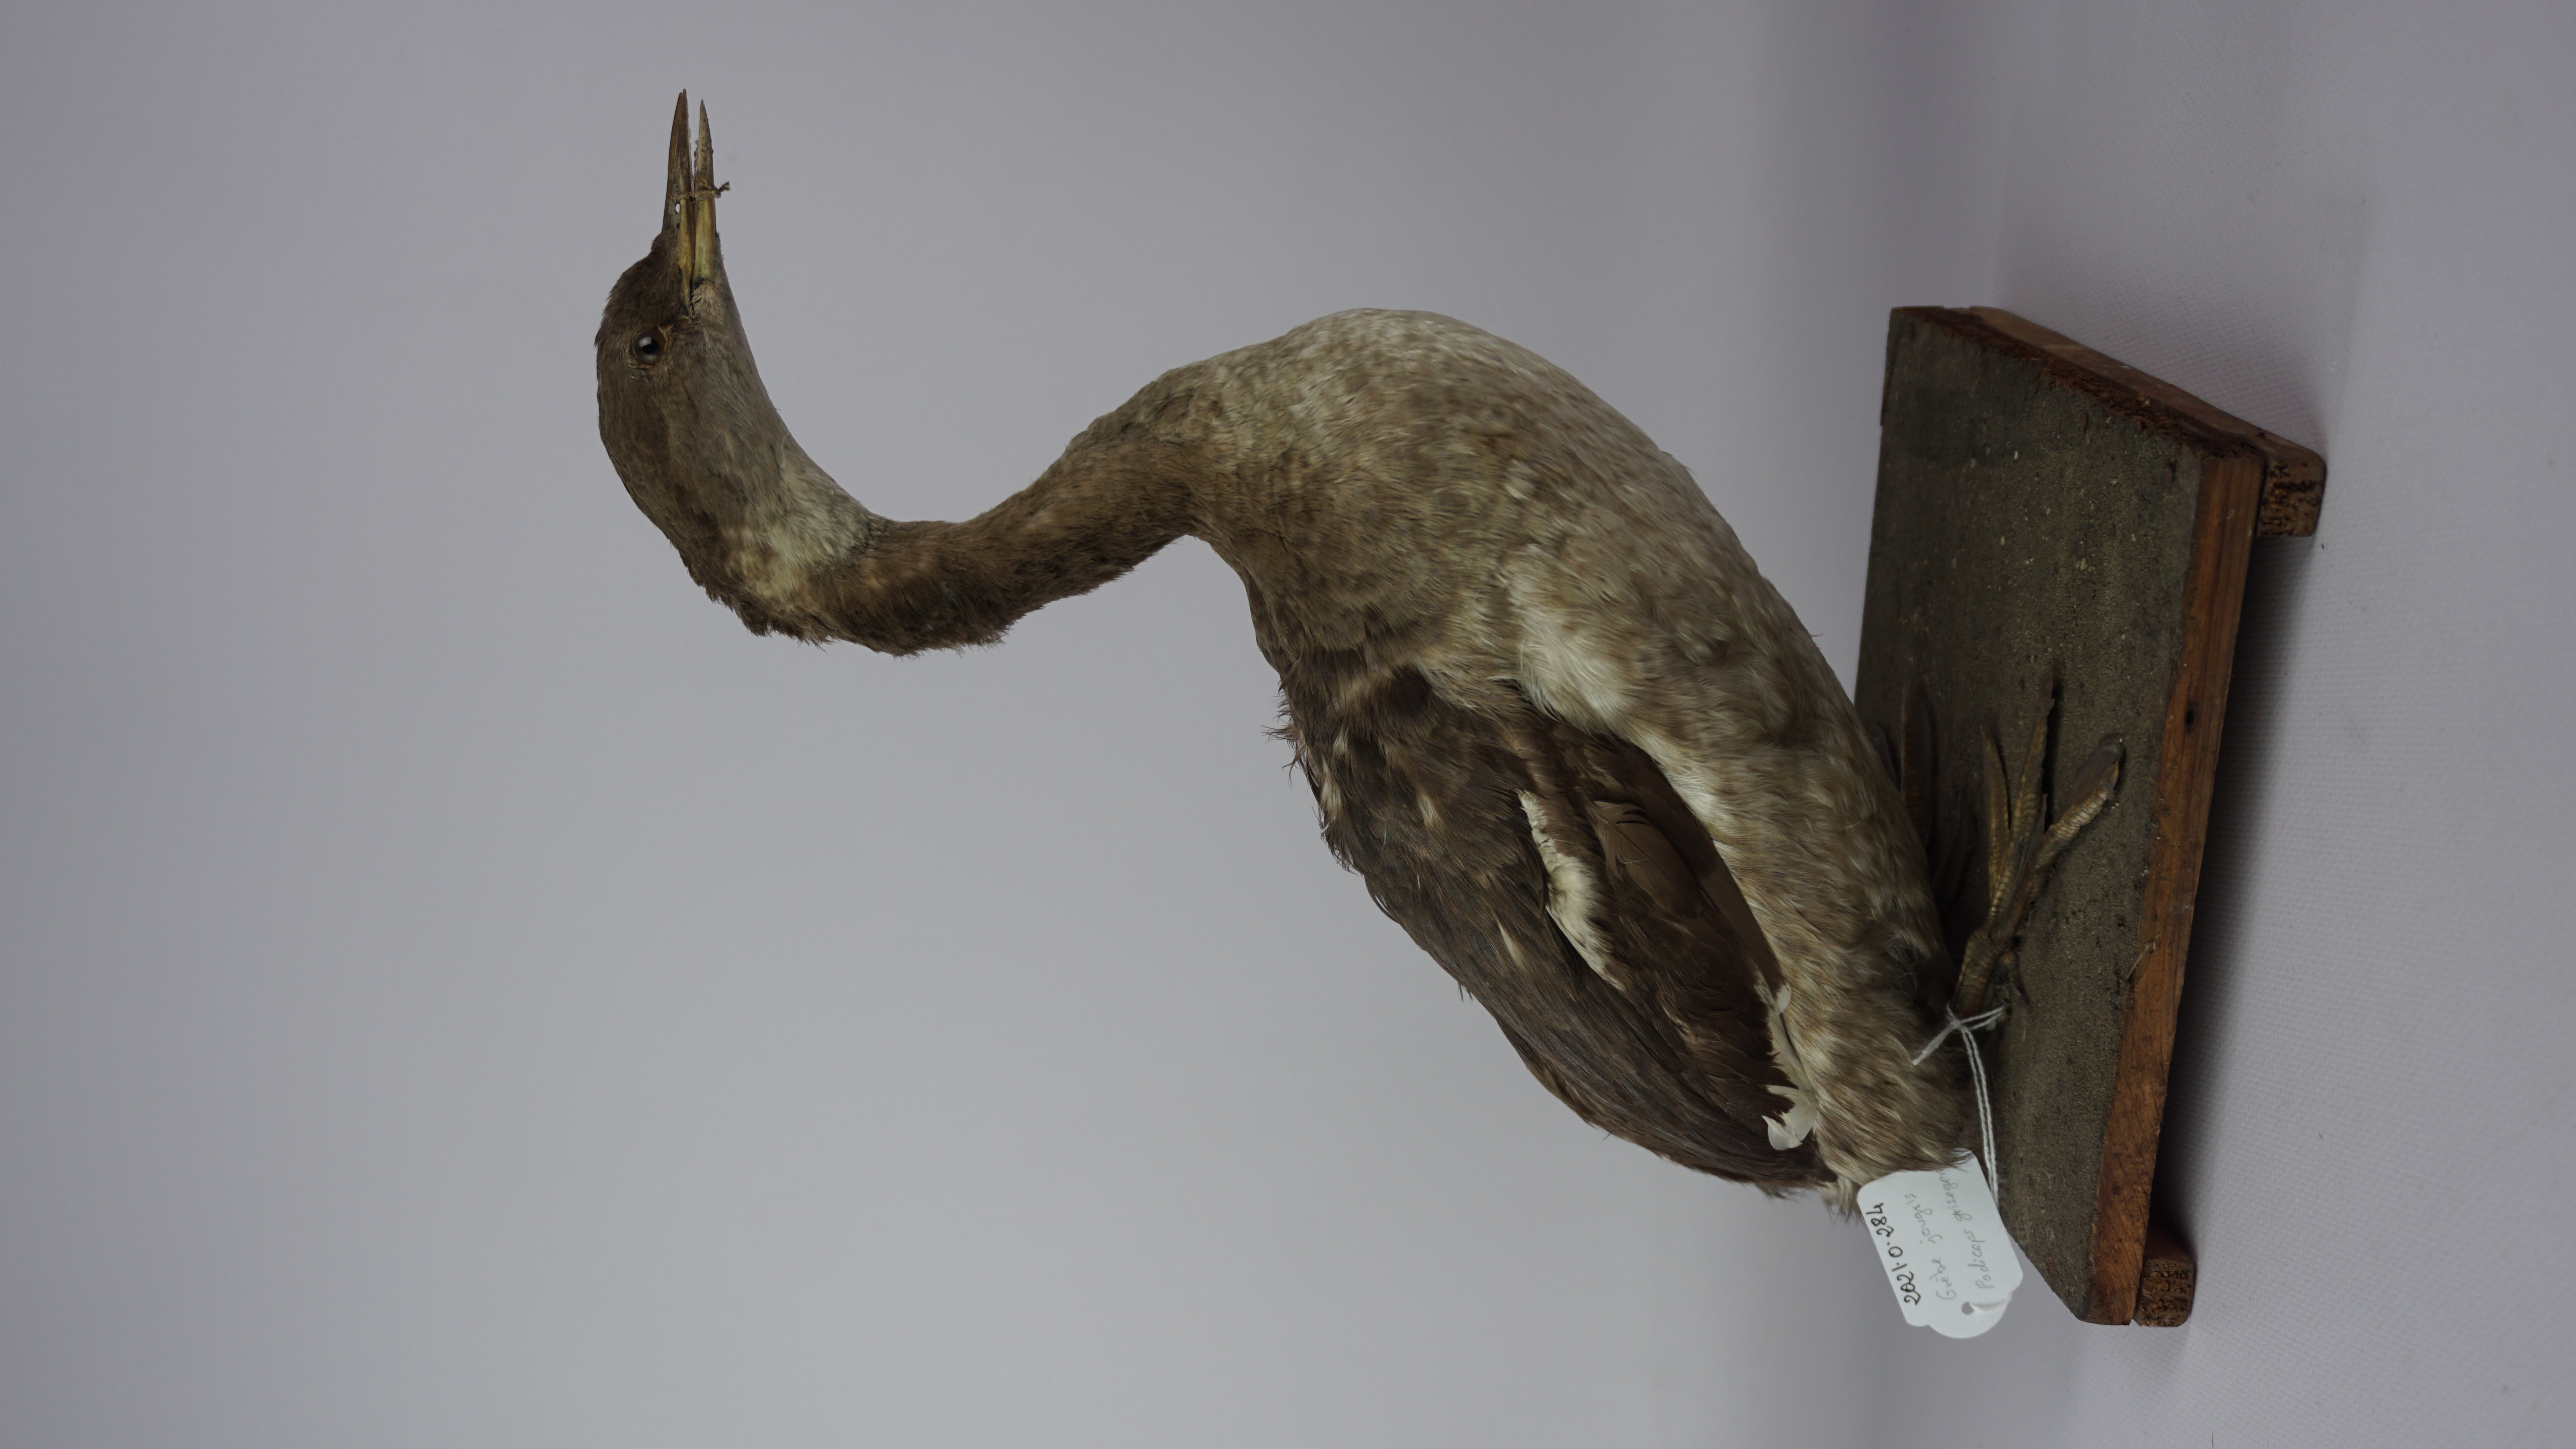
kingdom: Animalia
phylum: Chordata
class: Aves
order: Podicipediformes
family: Podicipedidae
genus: Podiceps
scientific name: Podiceps grisegena
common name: Red-necked grebe
